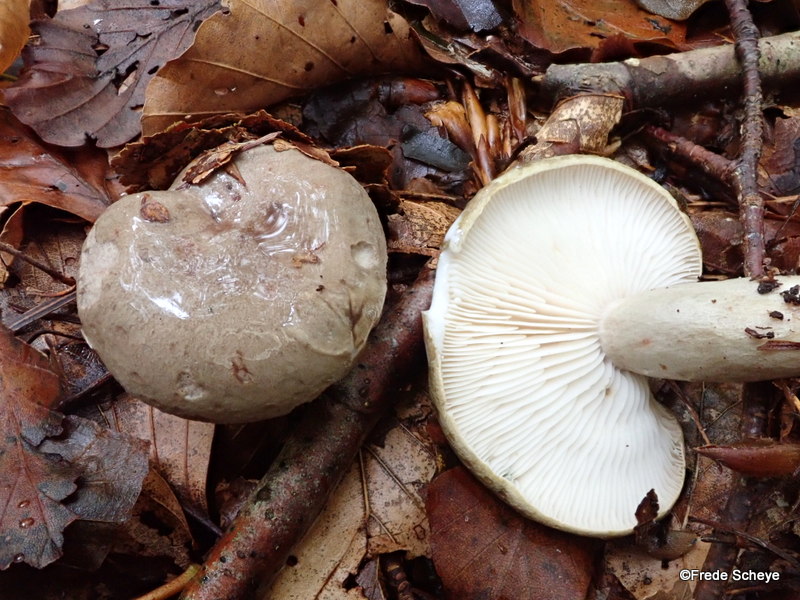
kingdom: Fungi
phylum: Basidiomycota
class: Agaricomycetes
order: Russulales
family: Russulaceae
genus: Lactarius
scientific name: Lactarius blennius
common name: dråbeplettet mælkehat
